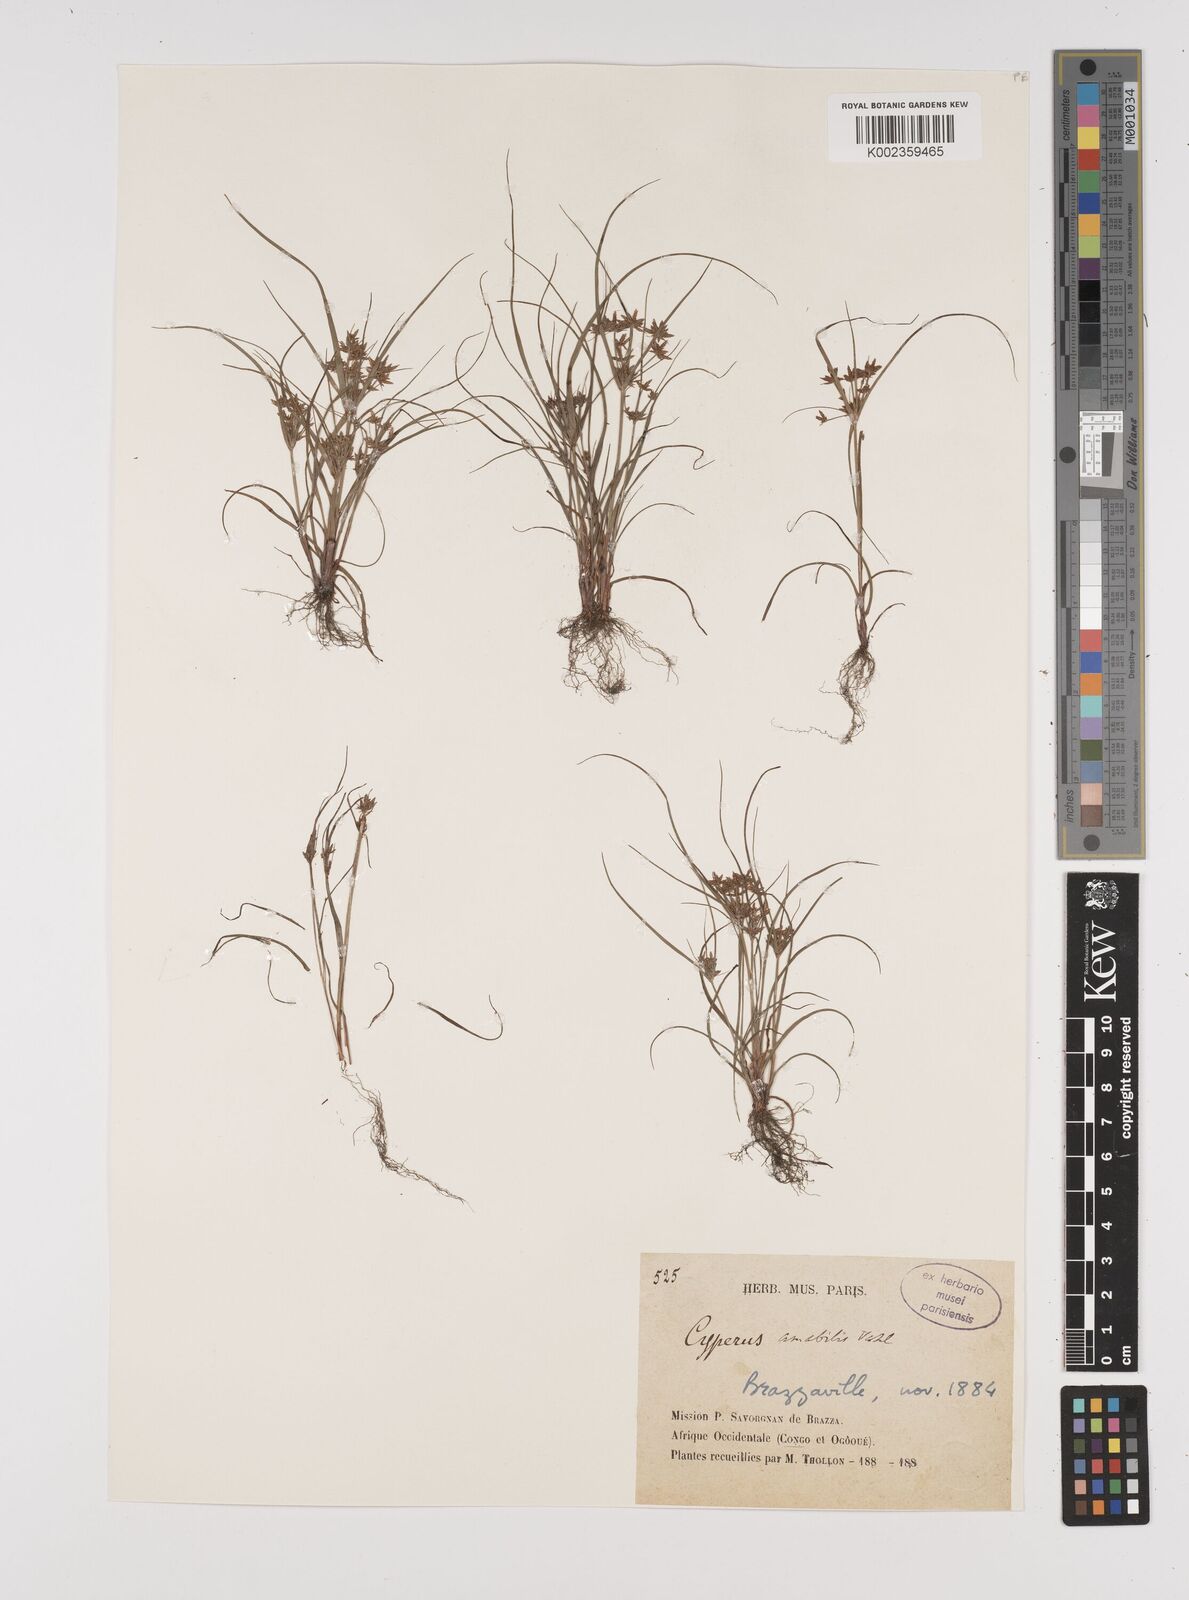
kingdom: Plantae
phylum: Tracheophyta
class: Liliopsida
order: Poales
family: Cyperaceae
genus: Cyperus
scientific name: Cyperus amabilis
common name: Foothill flat sedge
